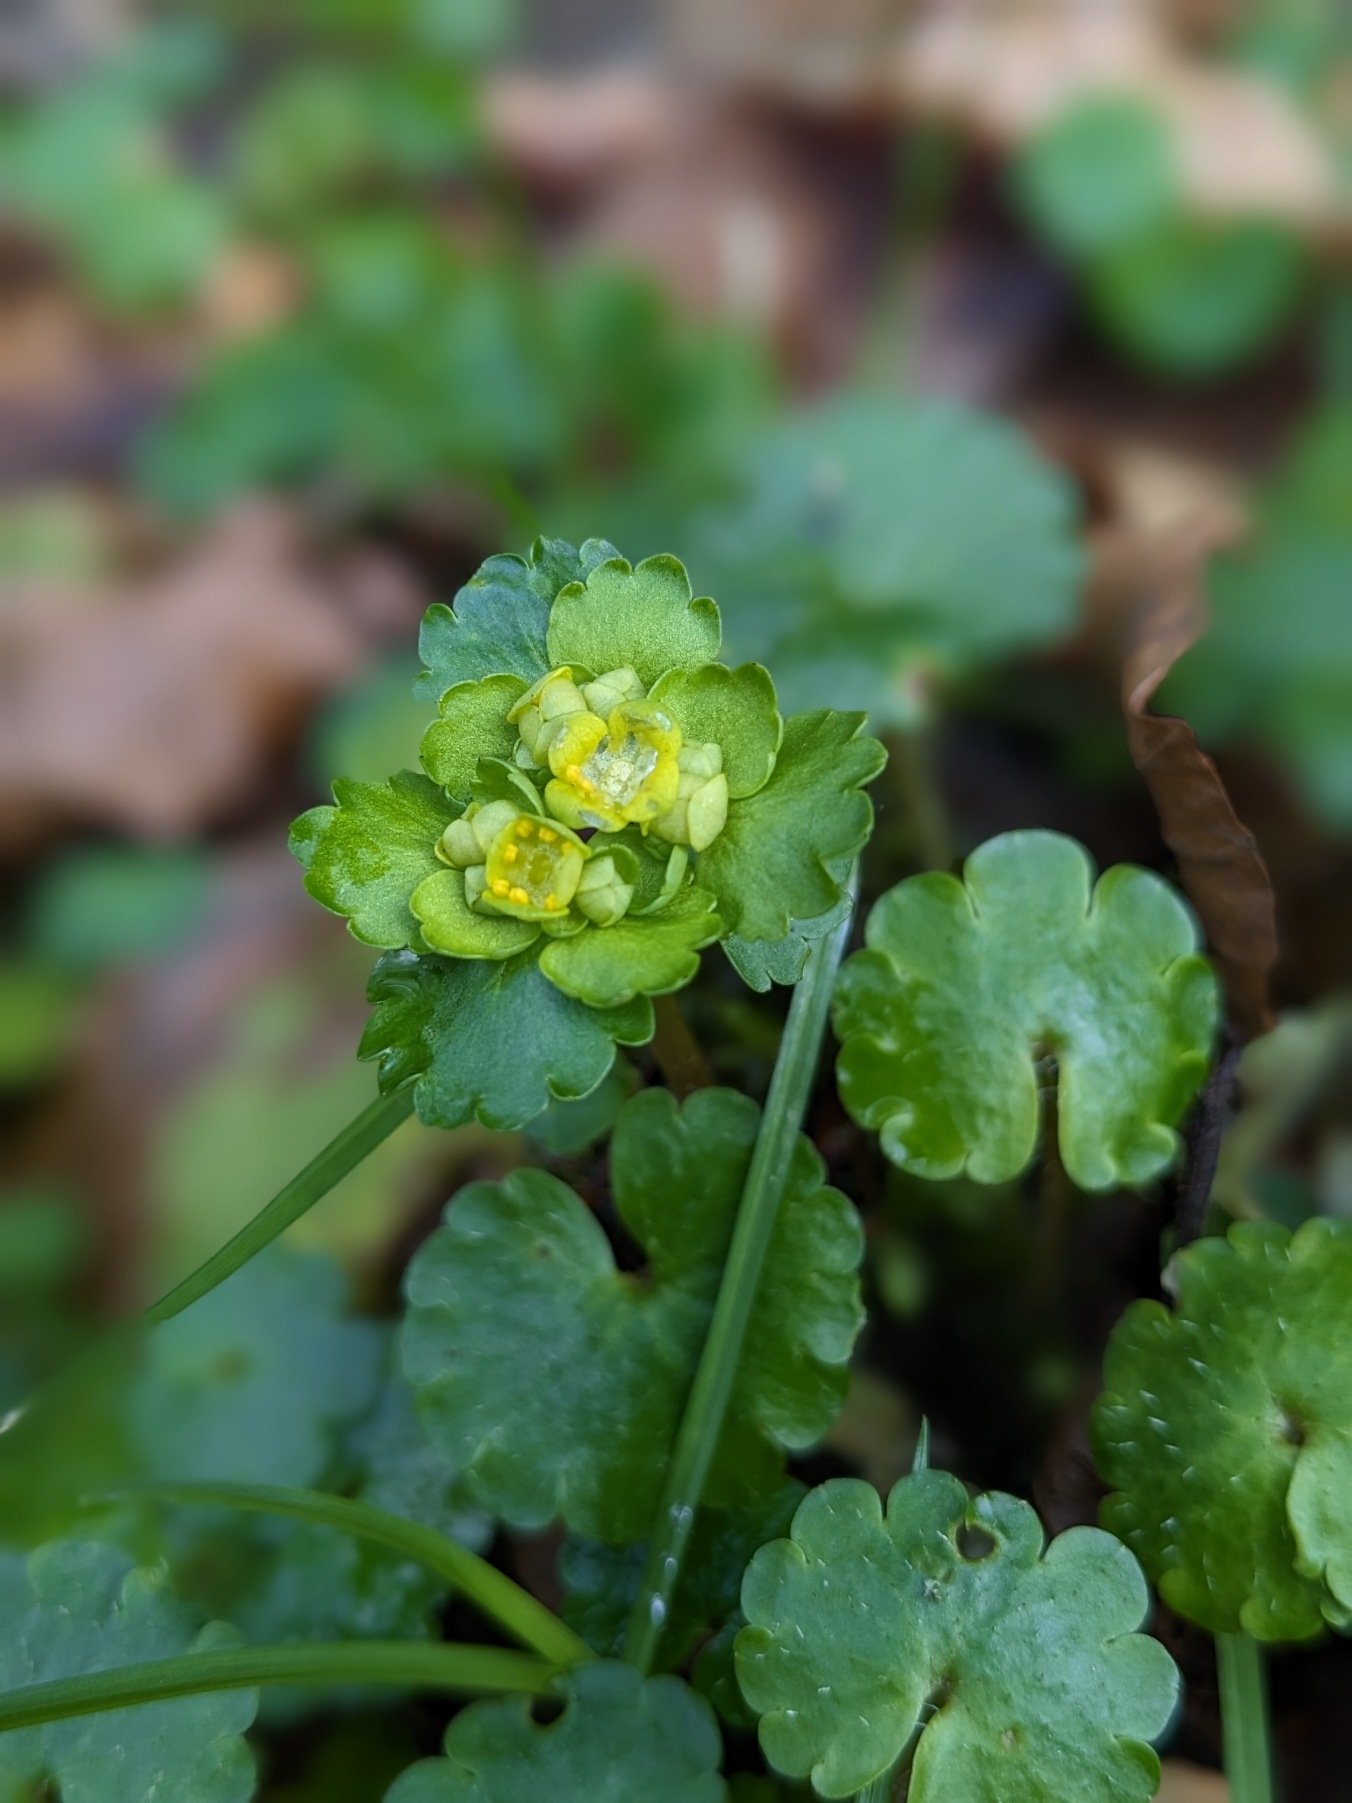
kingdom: Plantae
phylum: Tracheophyta
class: Magnoliopsida
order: Saxifragales
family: Saxifragaceae
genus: Chrysosplenium
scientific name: Chrysosplenium alternifolium
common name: Almindelig milturt
